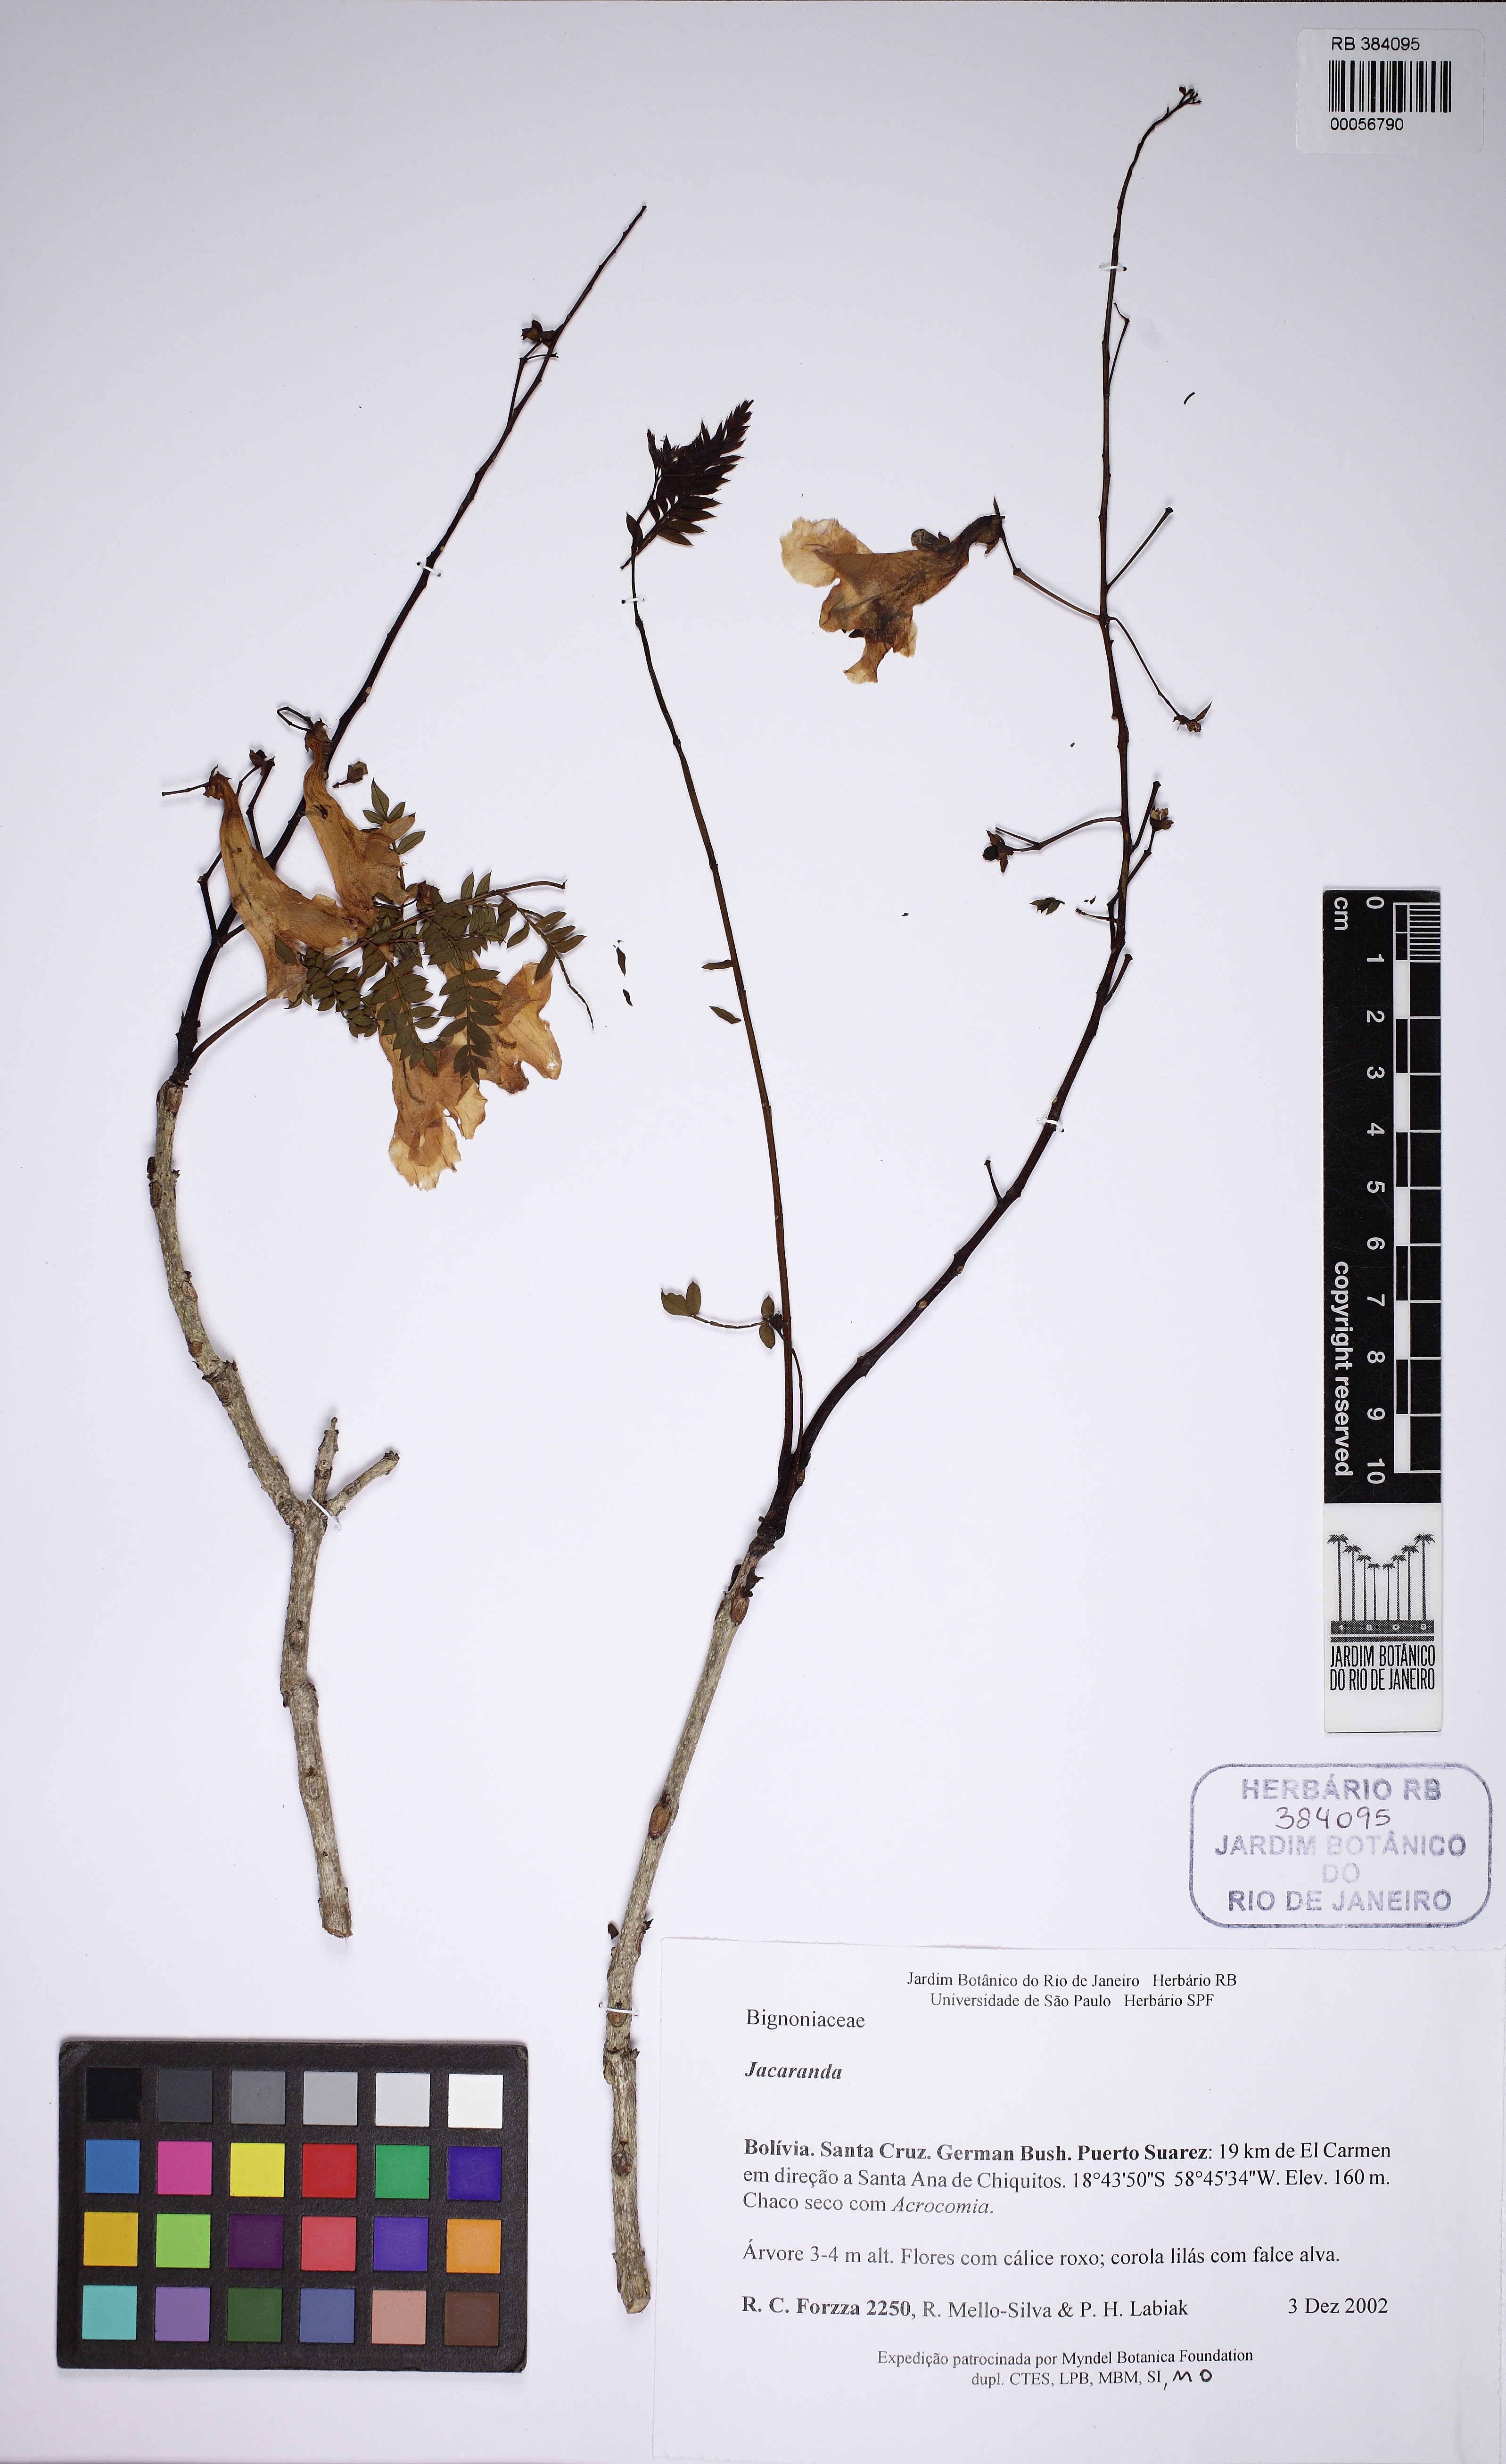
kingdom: Plantae
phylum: Tracheophyta
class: Magnoliopsida
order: Lamiales
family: Bignoniaceae
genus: Jacaranda
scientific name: Jacaranda
